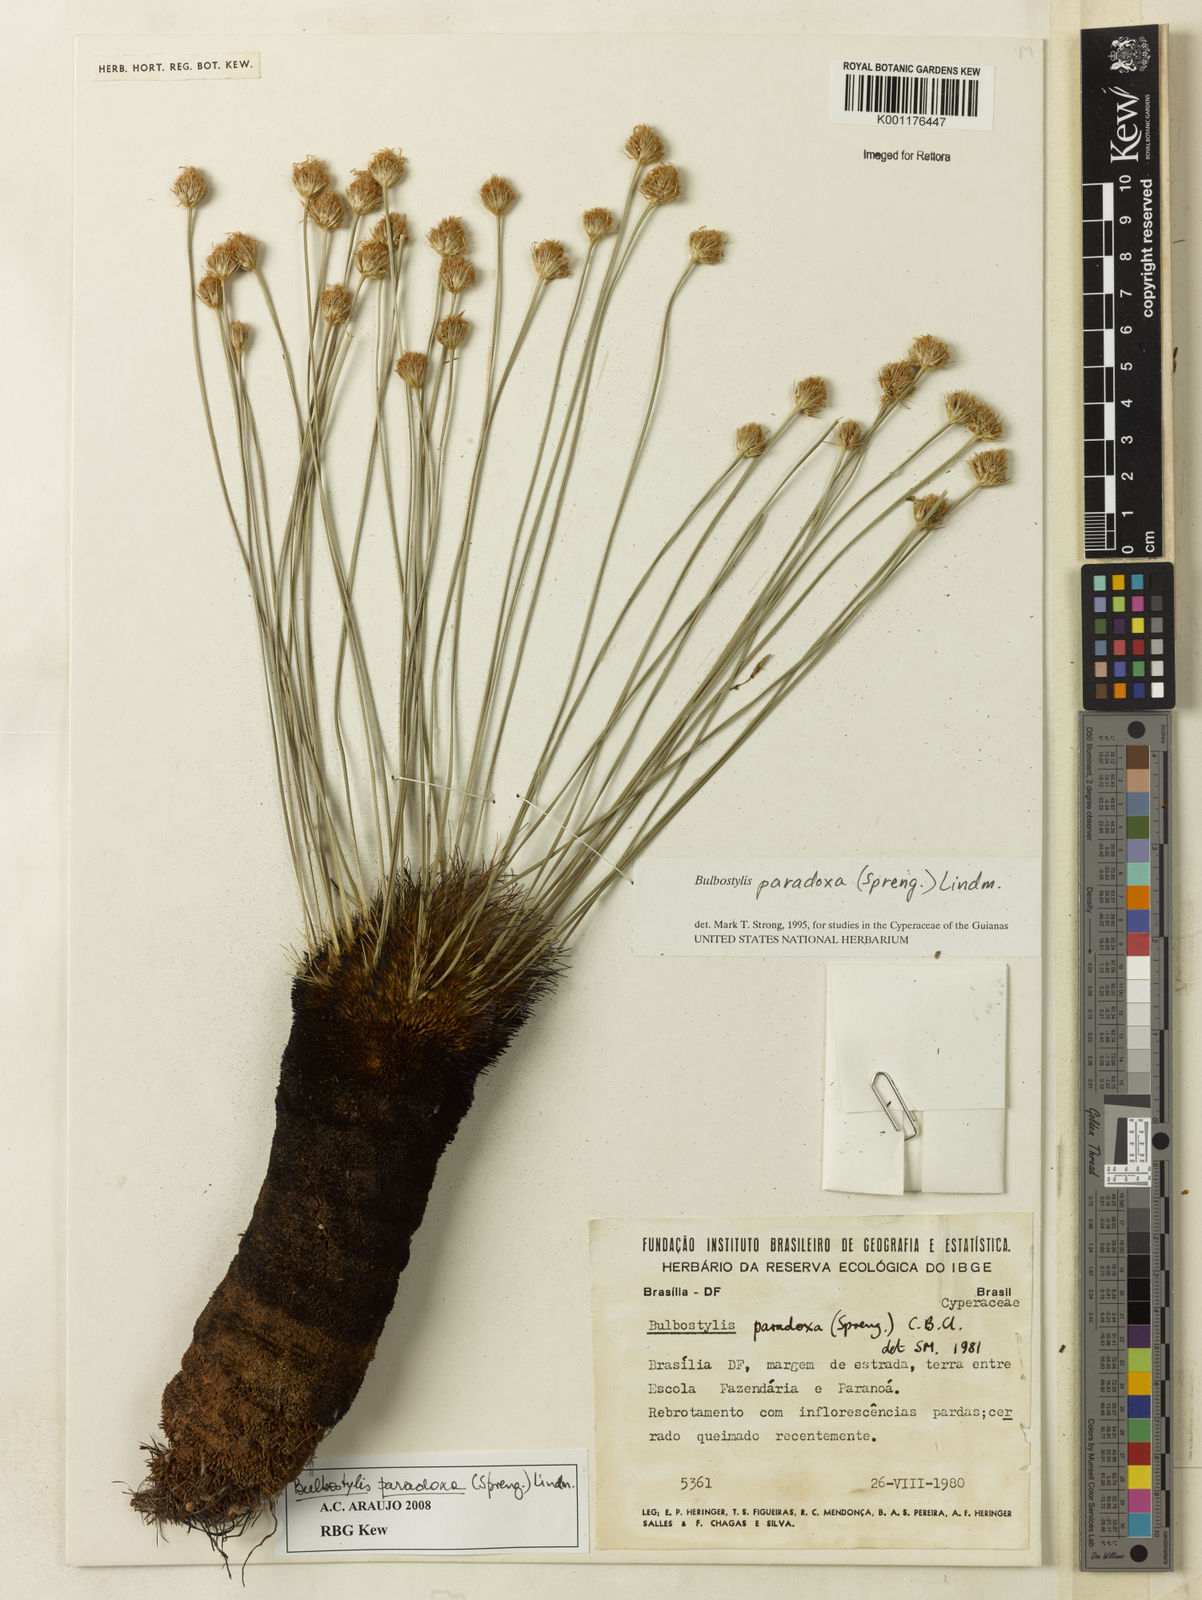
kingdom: Plantae
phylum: Tracheophyta
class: Liliopsida
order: Poales
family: Cyperaceae
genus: Bulbostylis
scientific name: Bulbostylis paradoxa
